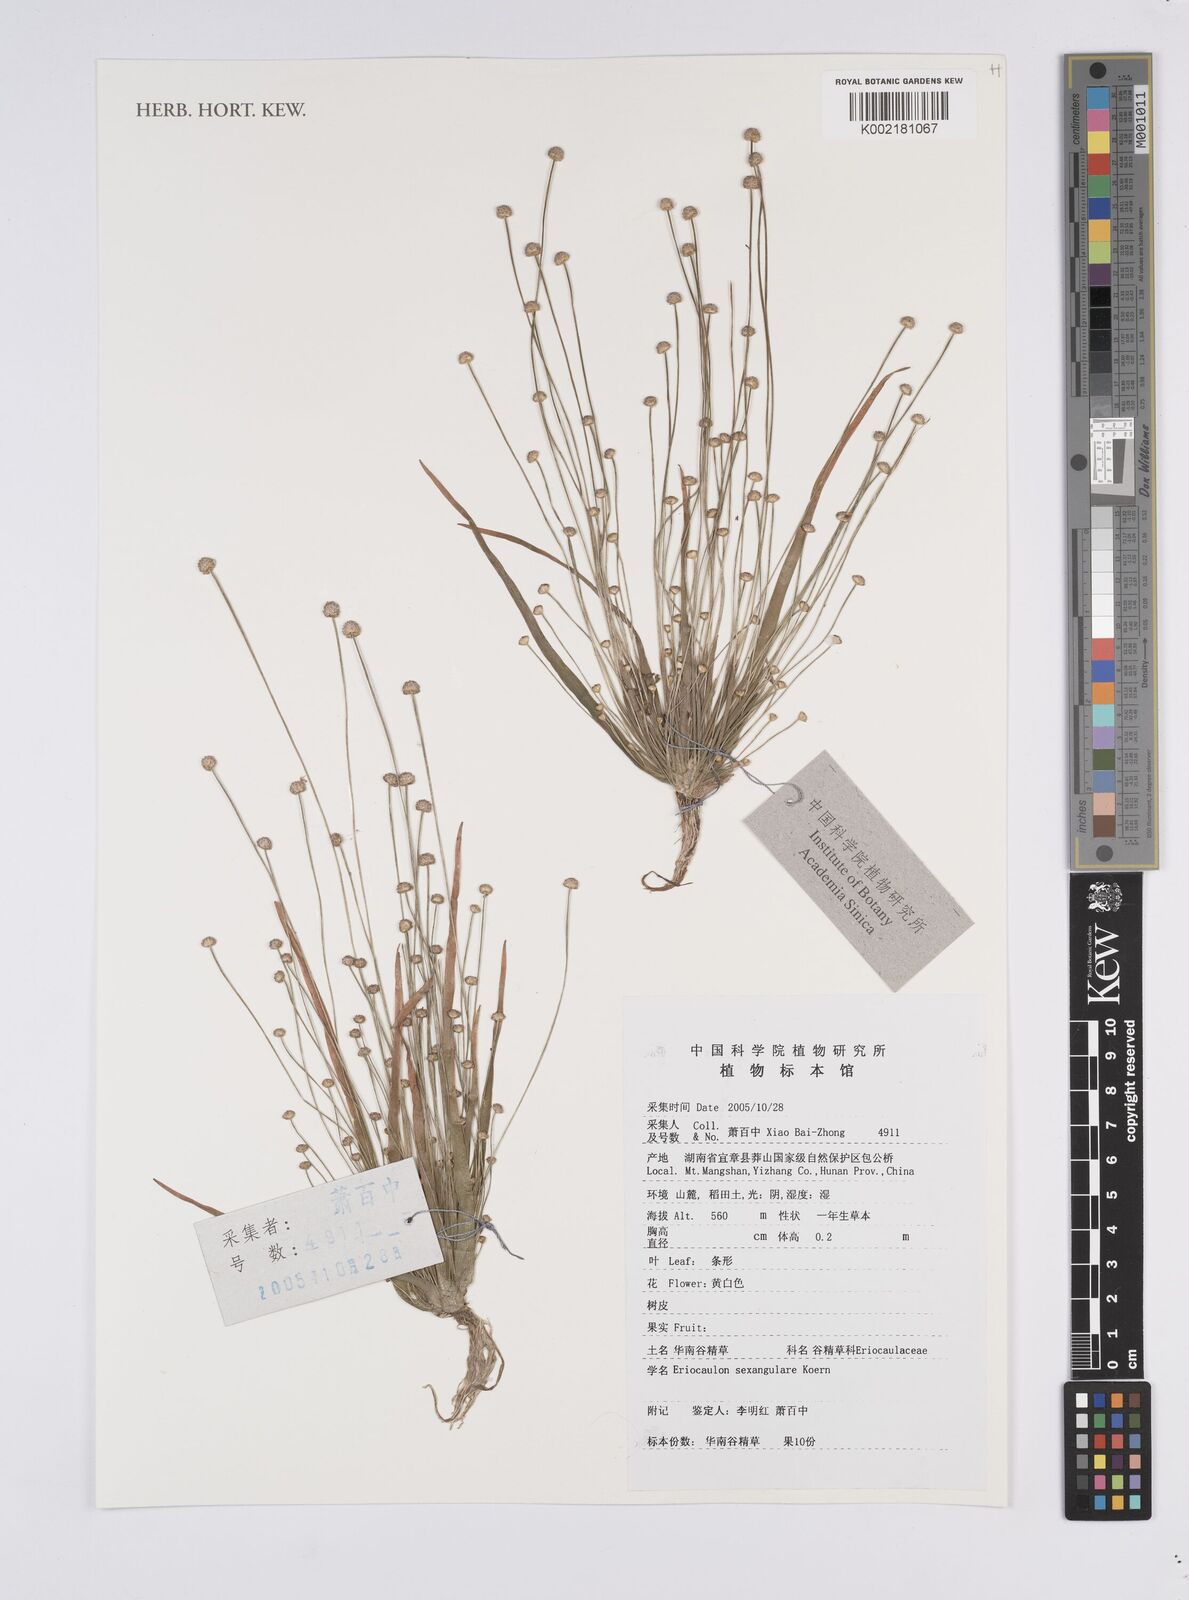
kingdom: Plantae
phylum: Tracheophyta
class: Liliopsida
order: Poales
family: Eriocaulaceae
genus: Eriocaulon
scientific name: Eriocaulon sexangulare
